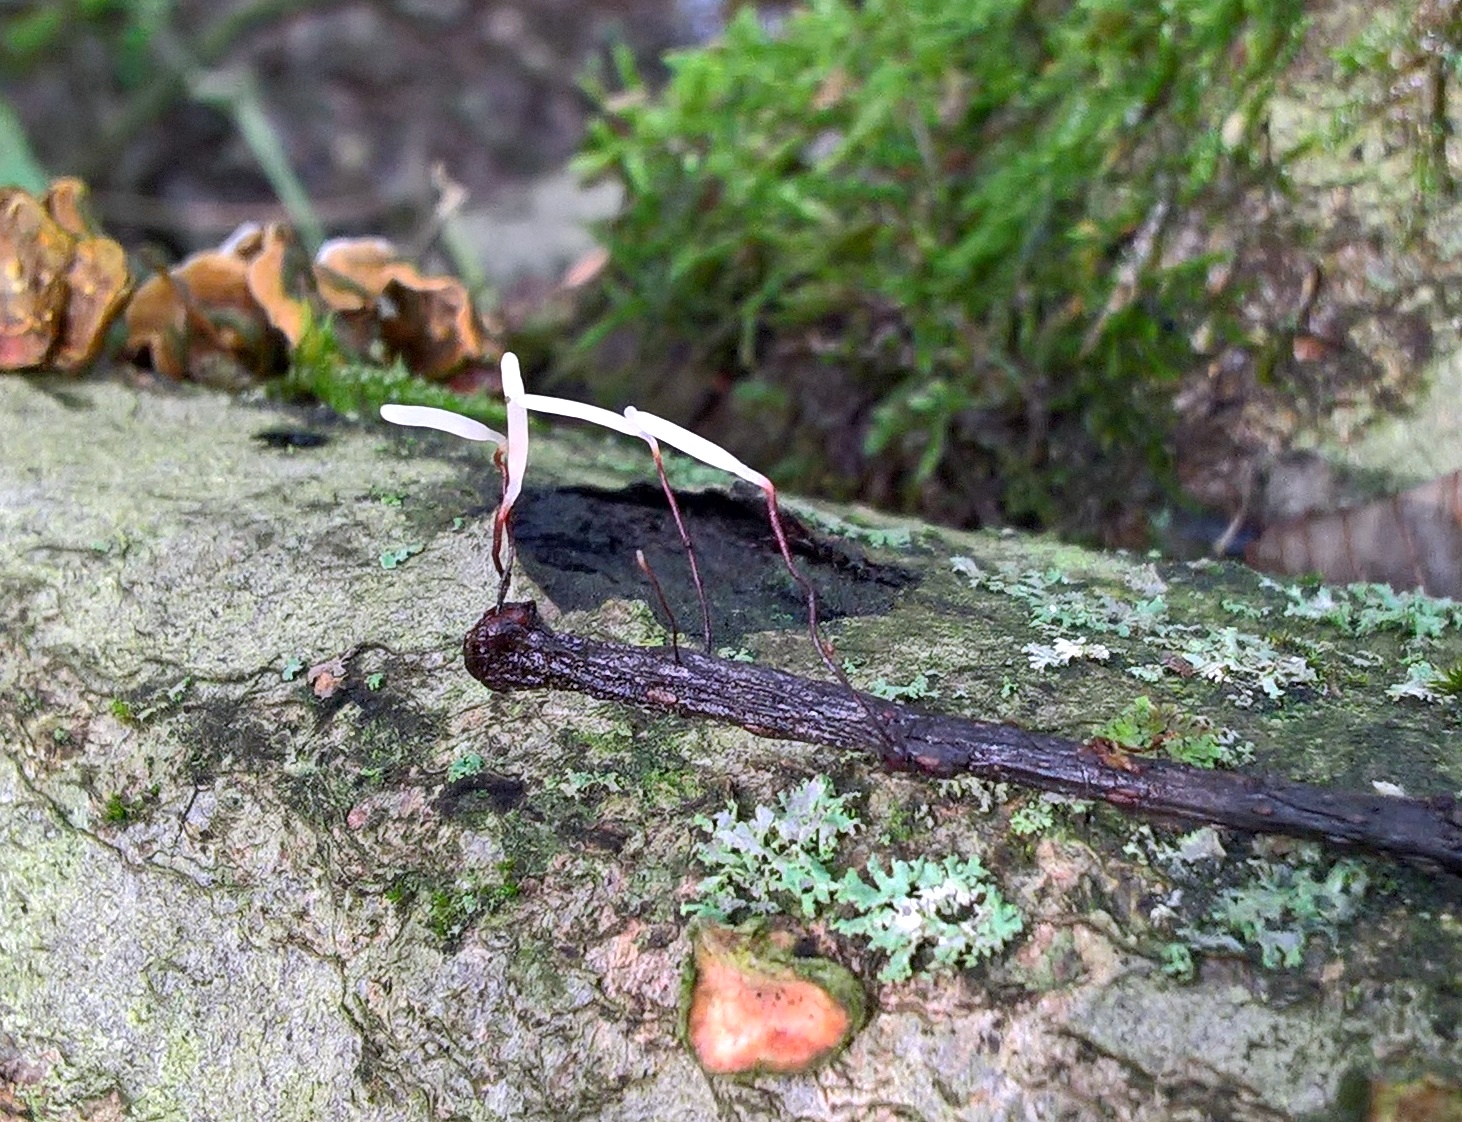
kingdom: Fungi
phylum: Basidiomycota
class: Agaricomycetes
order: Agaricales
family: Typhulaceae
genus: Typhula
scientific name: Typhula erythropus
